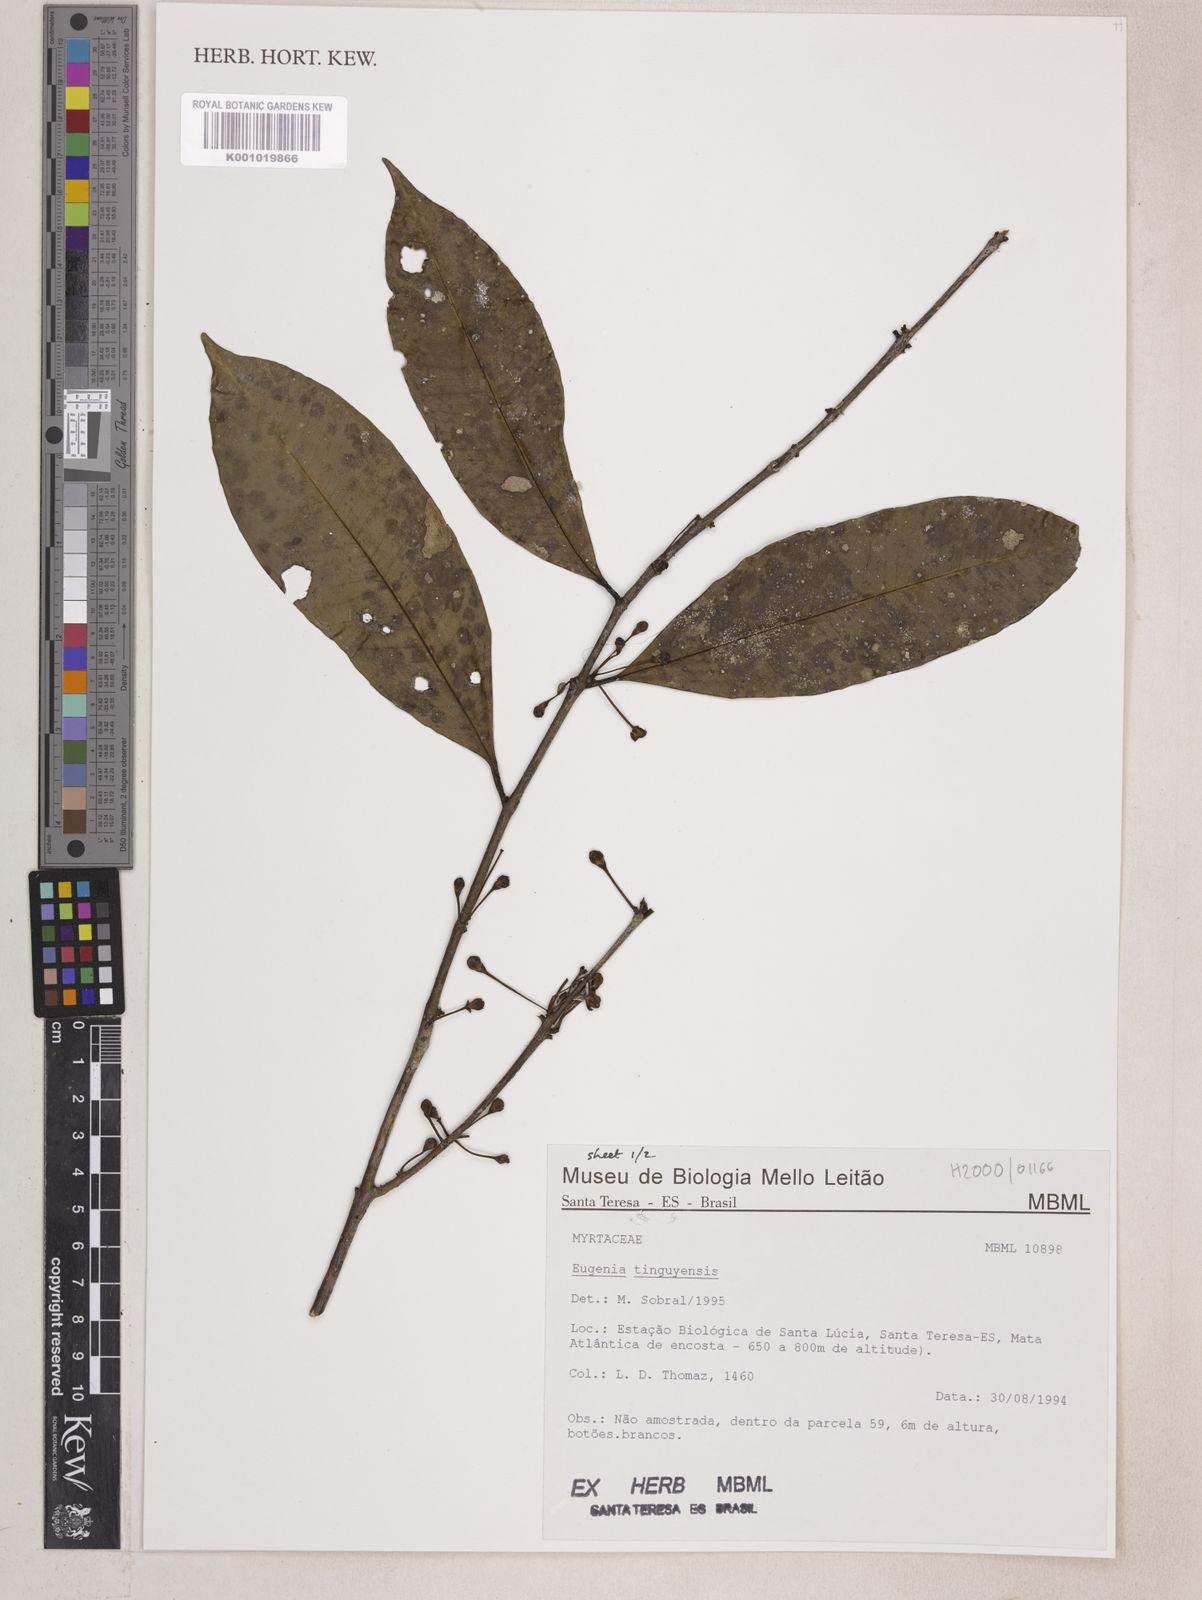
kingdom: Plantae
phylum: Tracheophyta
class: Magnoliopsida
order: Myrtales
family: Myrtaceae
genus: Eugenia
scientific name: Eugenia pisiformis
